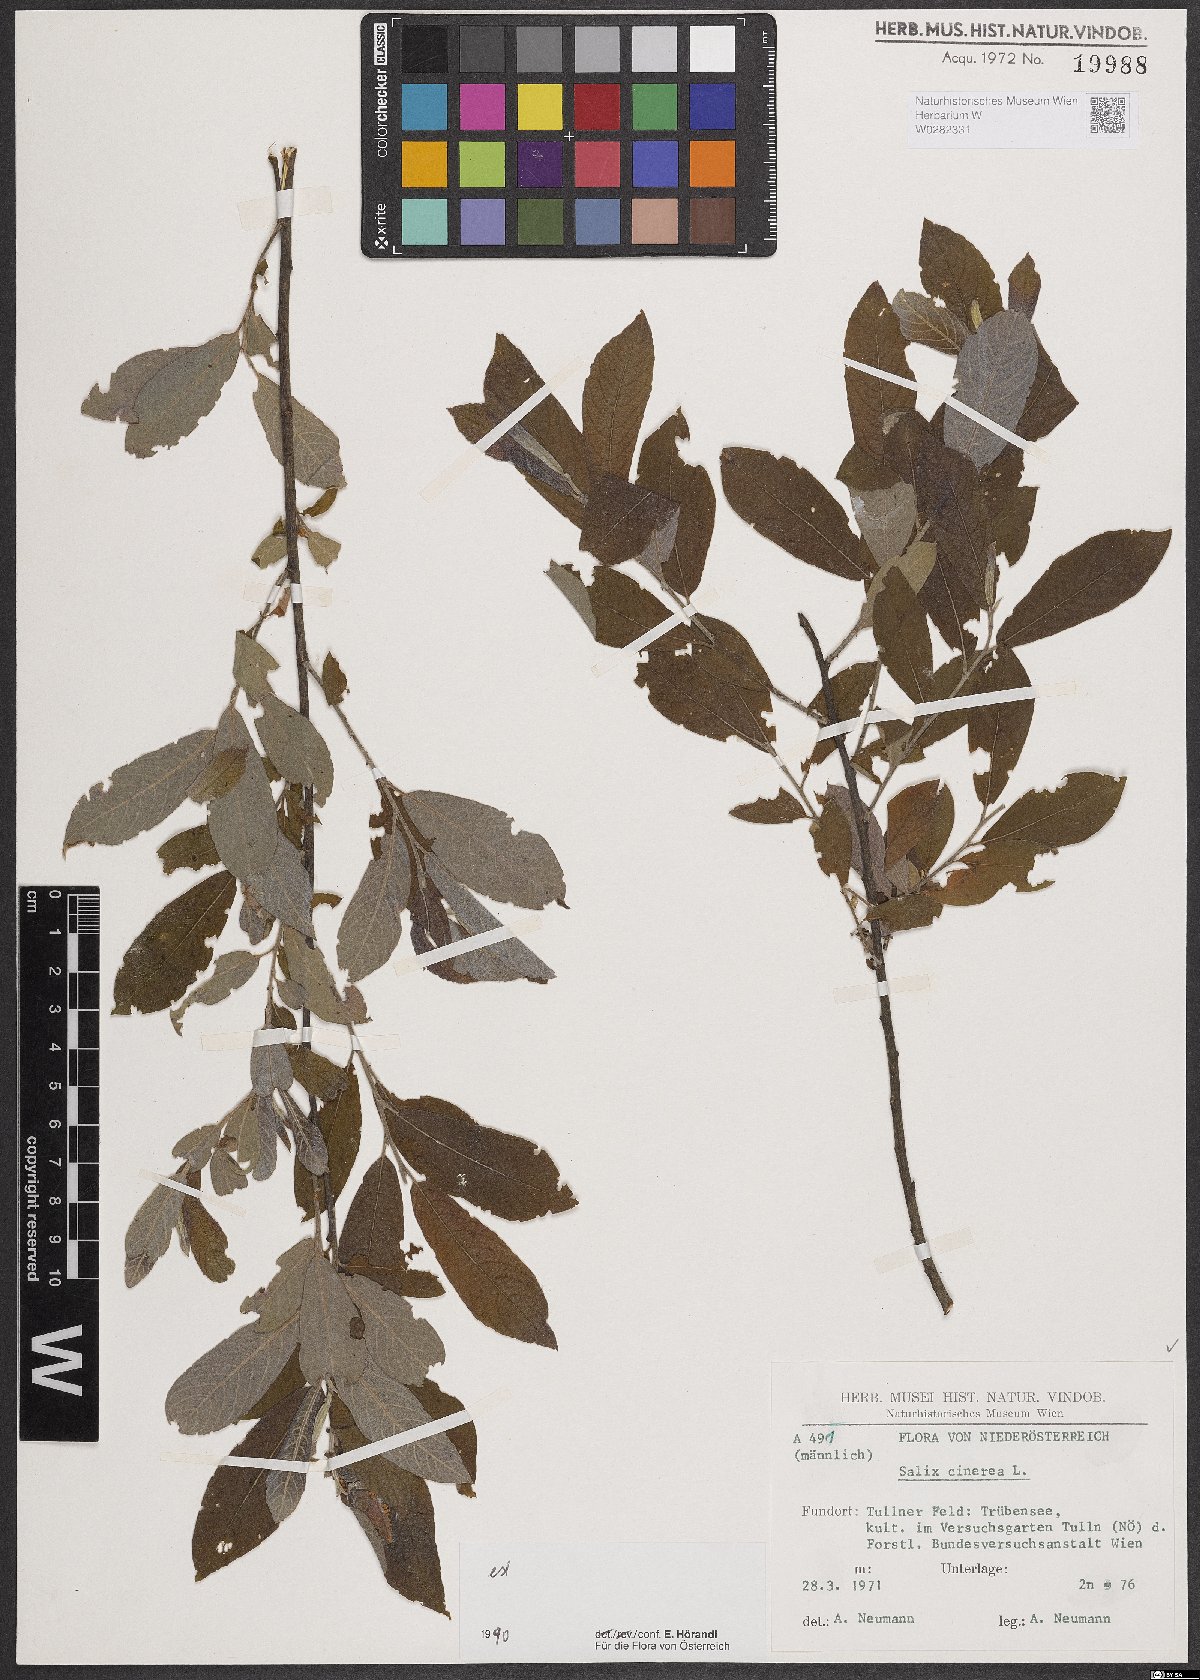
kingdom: Plantae
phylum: Tracheophyta
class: Magnoliopsida
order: Malpighiales
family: Salicaceae
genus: Salix
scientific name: Salix cinerea
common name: Common sallow
